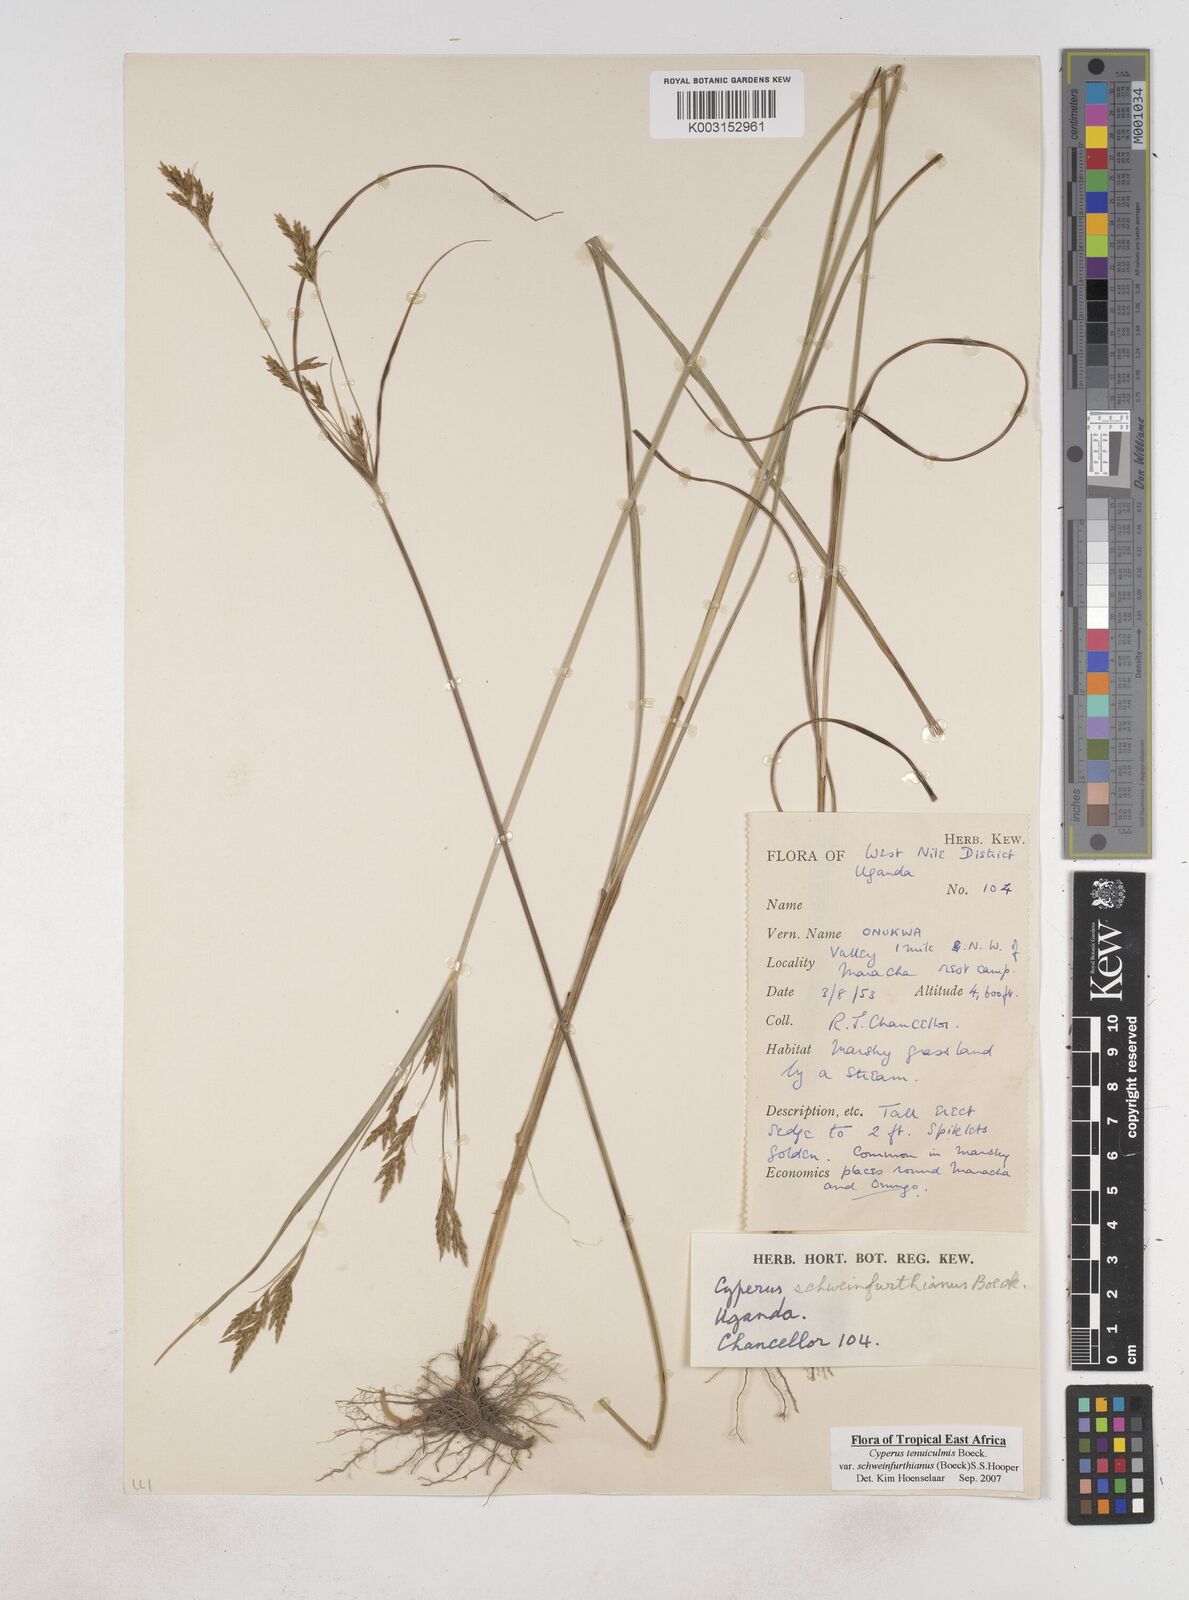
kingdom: Plantae
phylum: Tracheophyta
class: Liliopsida
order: Poales
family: Cyperaceae
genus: Cyperus
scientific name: Cyperus tenuiculmis
